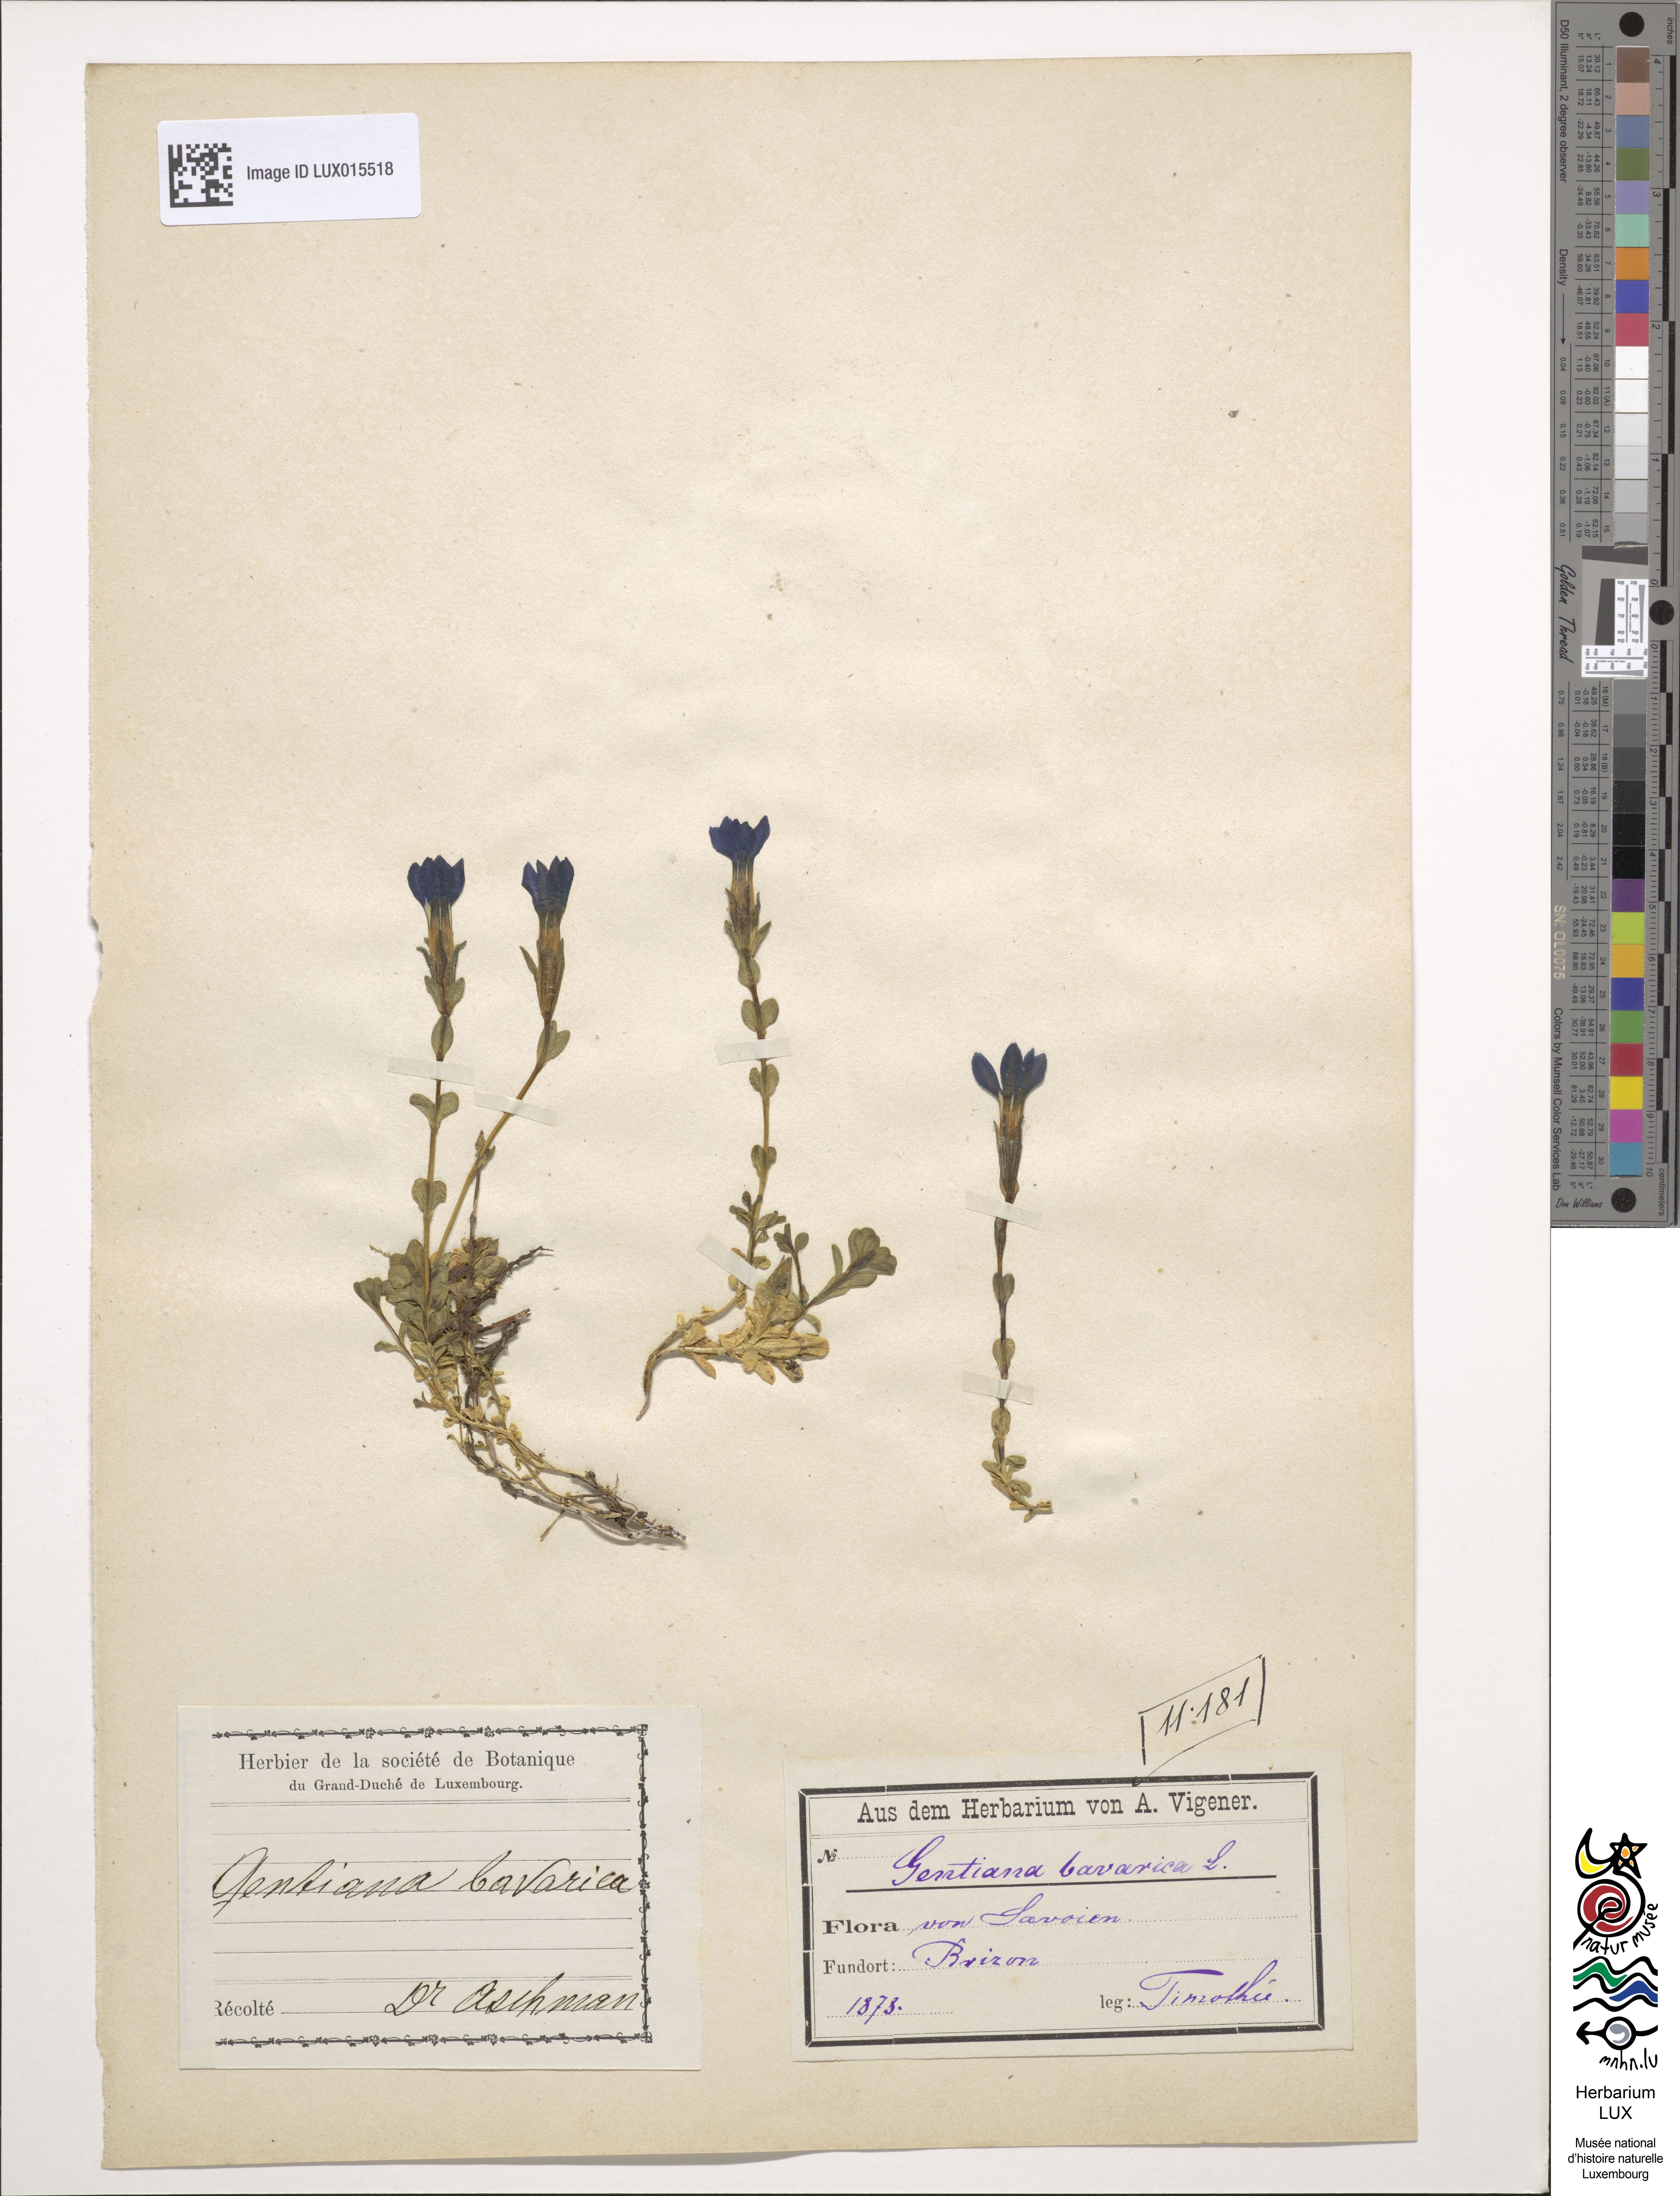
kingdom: Plantae
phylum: Tracheophyta
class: Magnoliopsida
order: Gentianales
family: Gentianaceae
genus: Gentiana
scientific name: Gentiana bavarica
